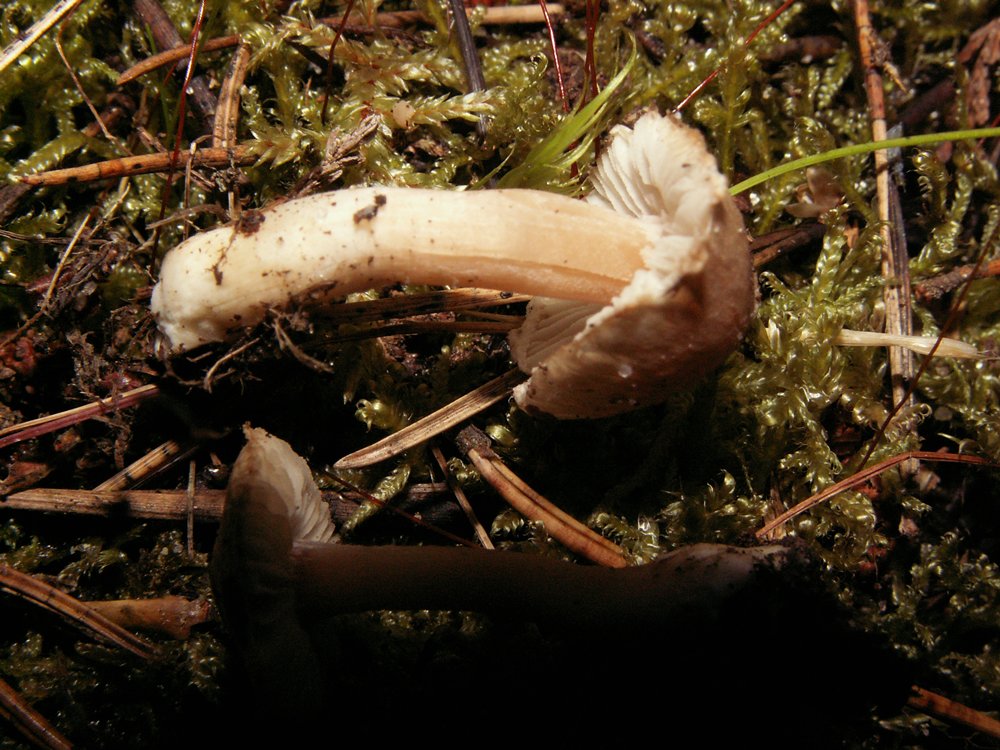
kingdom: Fungi
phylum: Basidiomycota
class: Agaricomycetes
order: Agaricales
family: Inocybaceae
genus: Inocybe
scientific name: Inocybe sindonia
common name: bleg trævlhat
